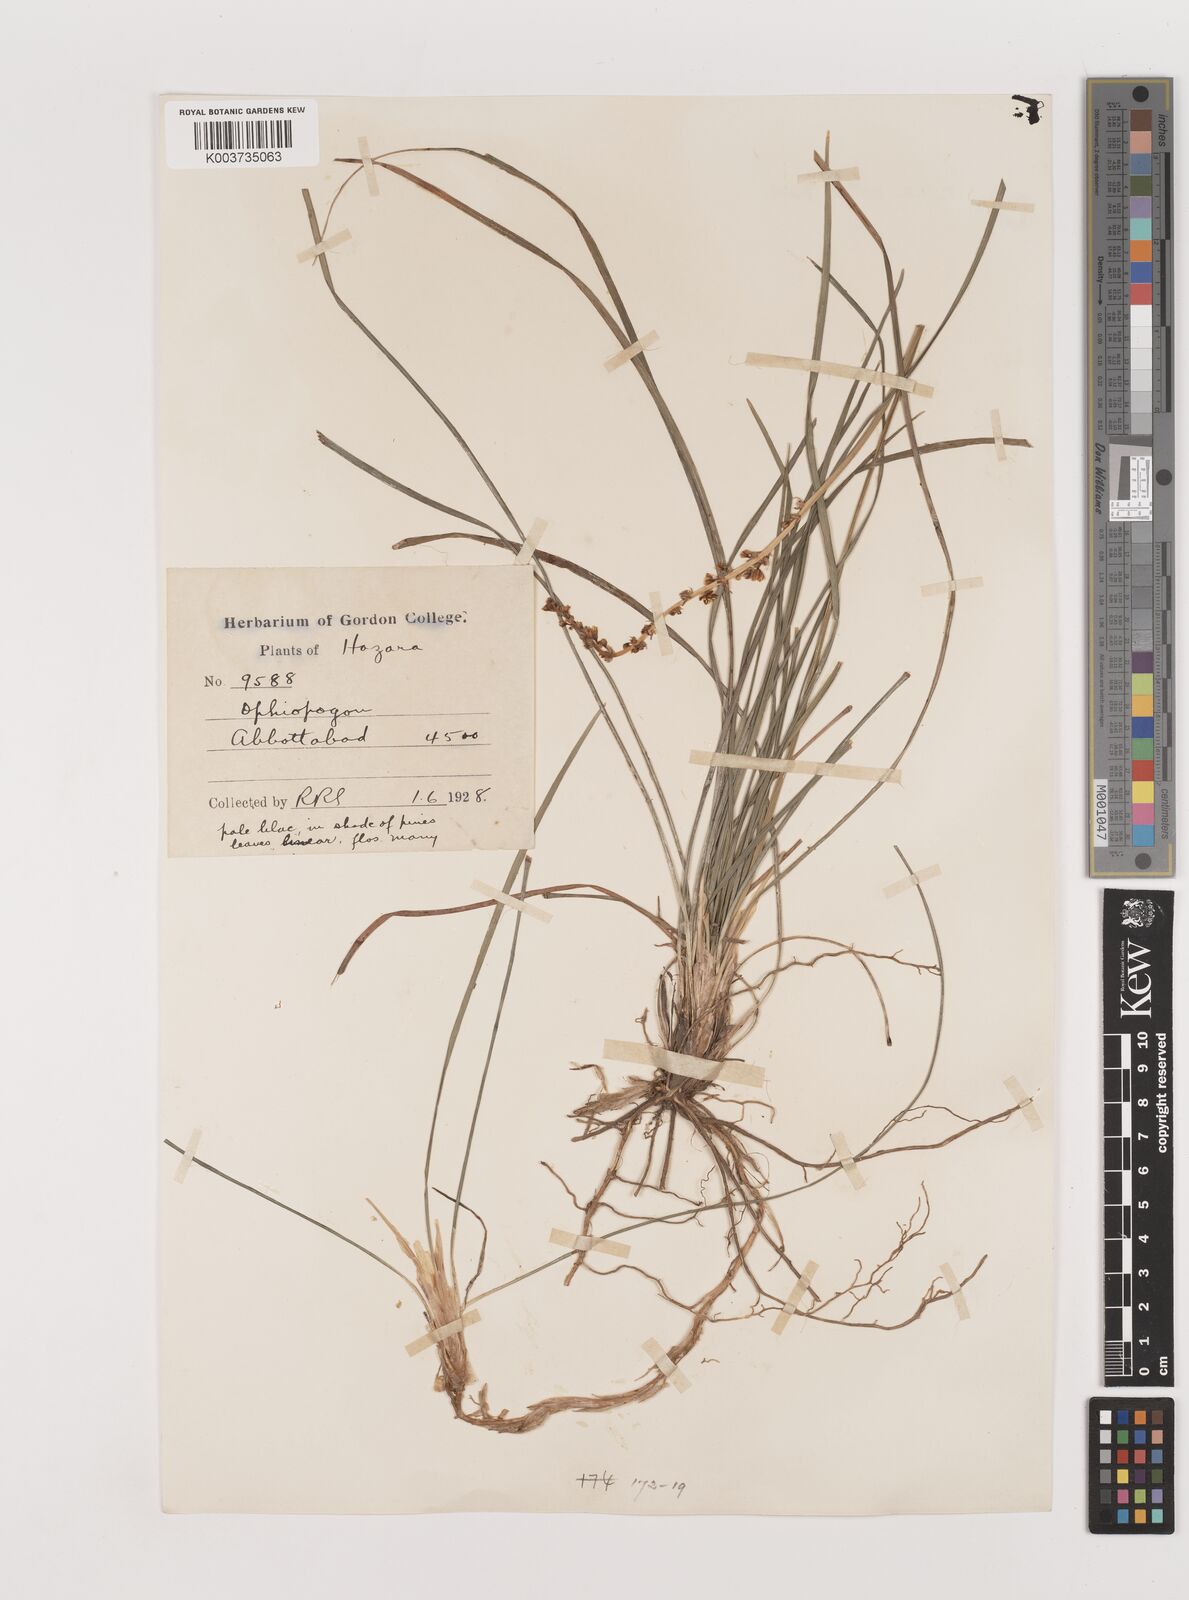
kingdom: Plantae
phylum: Tracheophyta
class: Liliopsida
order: Asparagales
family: Asparagaceae
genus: Ophiopogon
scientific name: Ophiopogon intermedius
